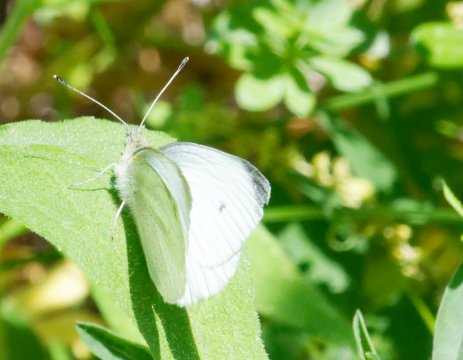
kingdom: Animalia
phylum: Arthropoda
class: Insecta
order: Lepidoptera
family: Pieridae
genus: Pieris
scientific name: Pieris rapae
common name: Cabbage White
